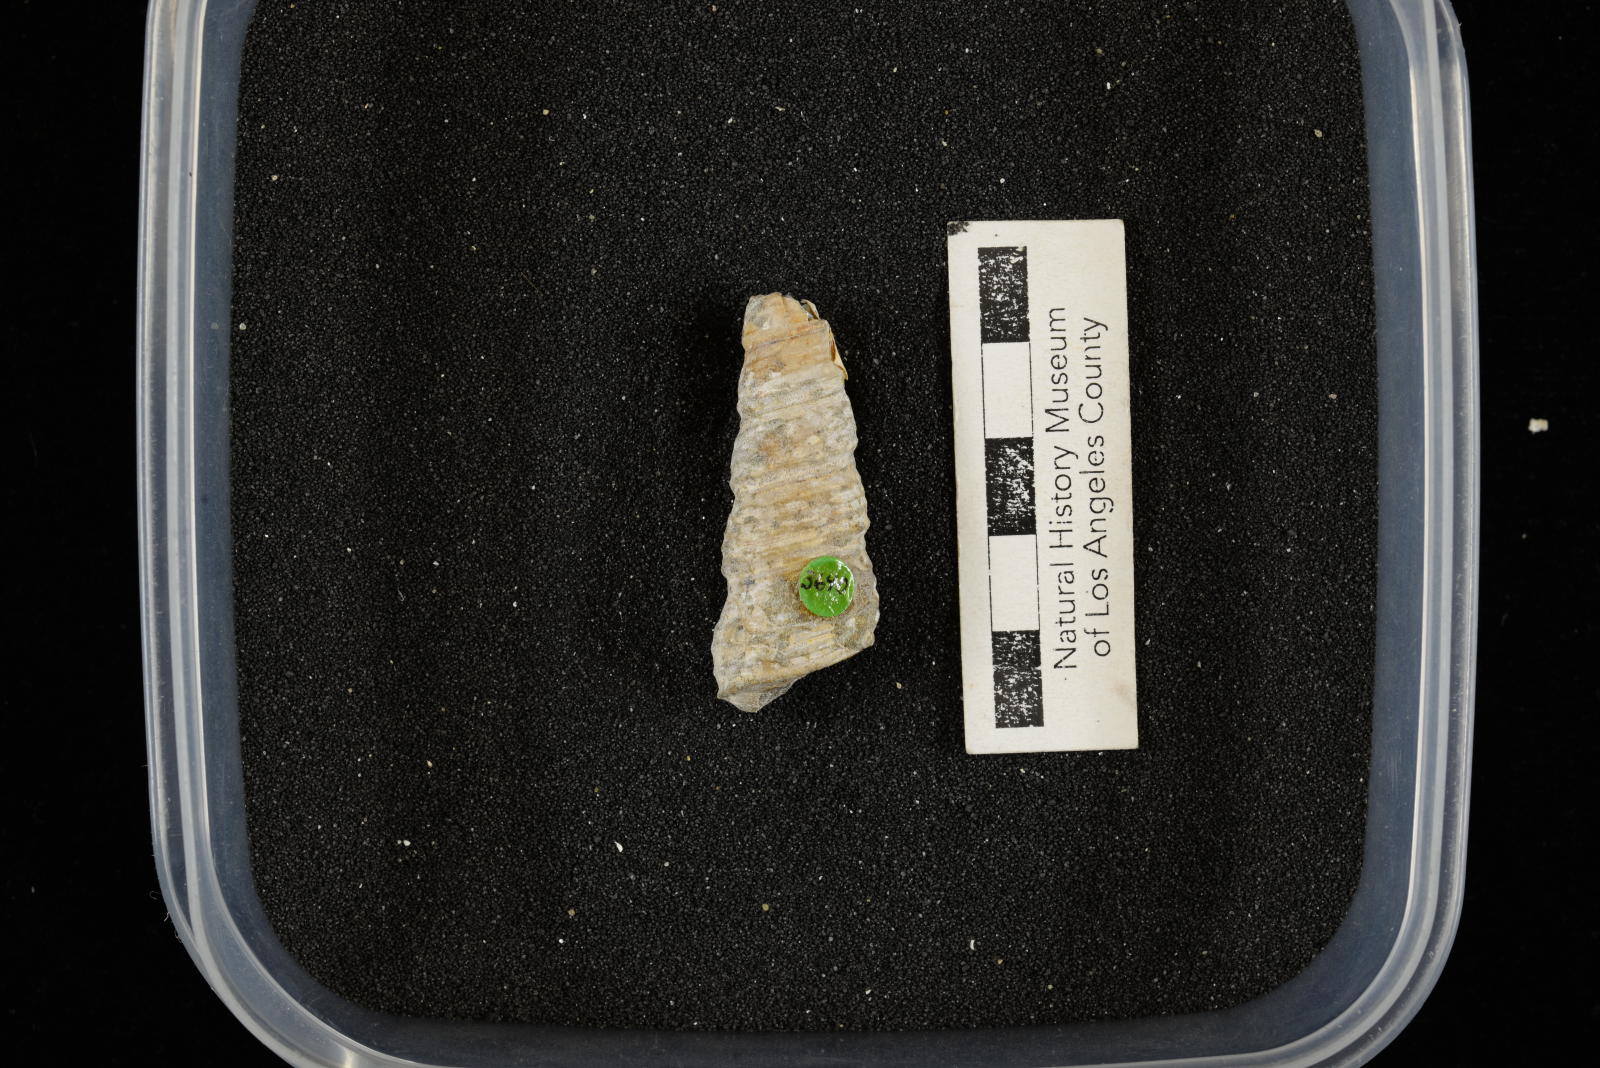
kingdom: Animalia
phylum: Mollusca
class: Gastropoda
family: Turritellidae
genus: Turritella
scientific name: Turritella chicoensis
